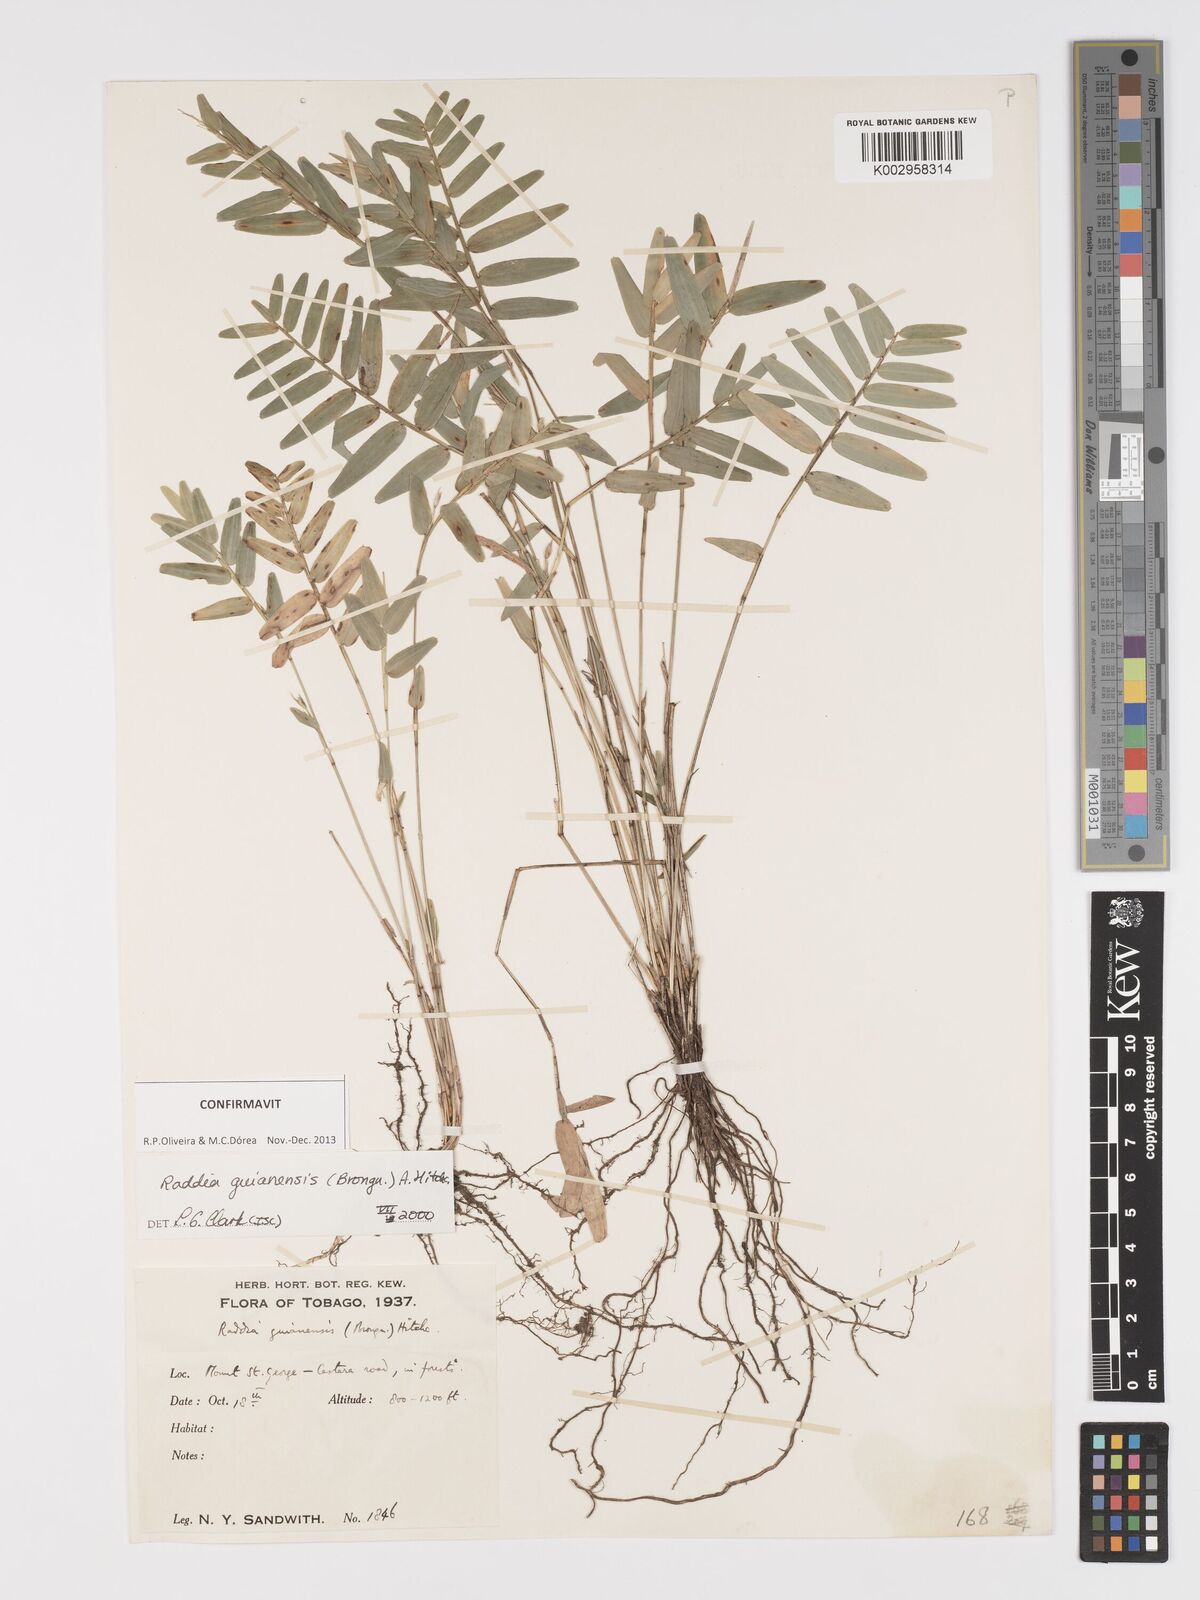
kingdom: Plantae
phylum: Tracheophyta
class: Liliopsida
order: Poales
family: Poaceae
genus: Raddia
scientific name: Raddia guianensis
